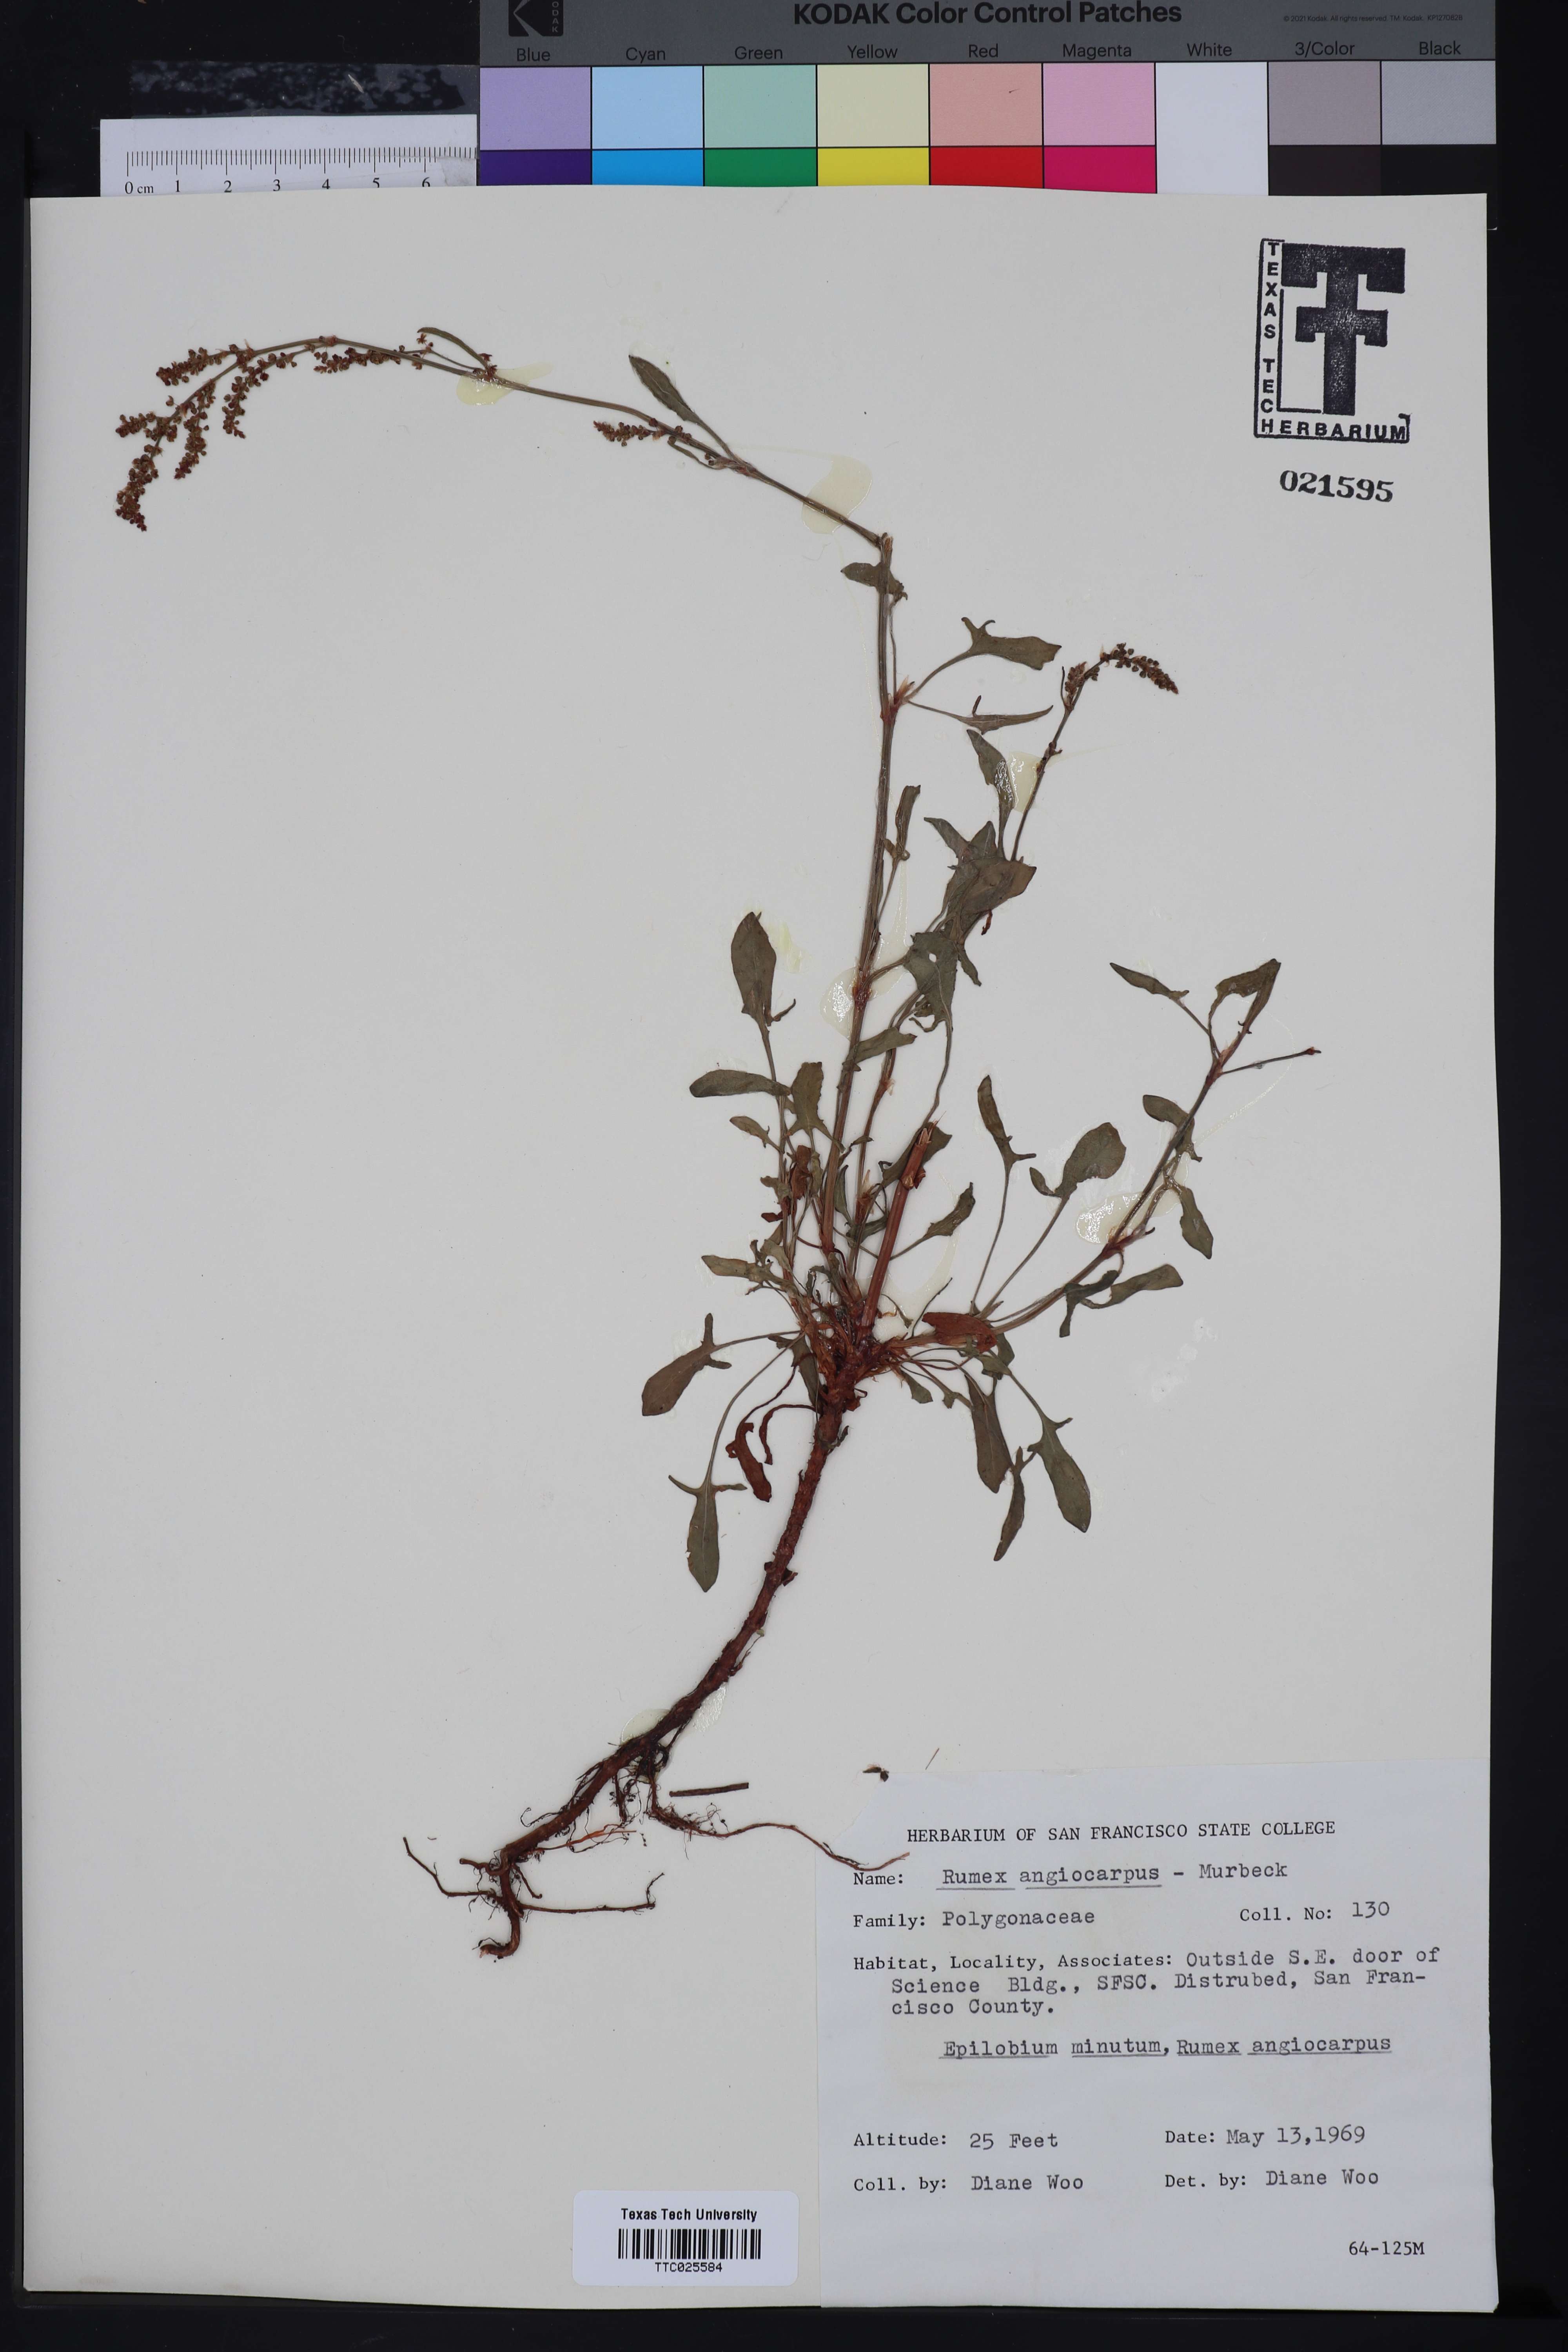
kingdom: Plantae
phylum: Tracheophyta
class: Magnoliopsida
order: Caryophyllales
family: Polygonaceae
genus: Rumex
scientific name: Rumex acetosella
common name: Common sheep sorrel
